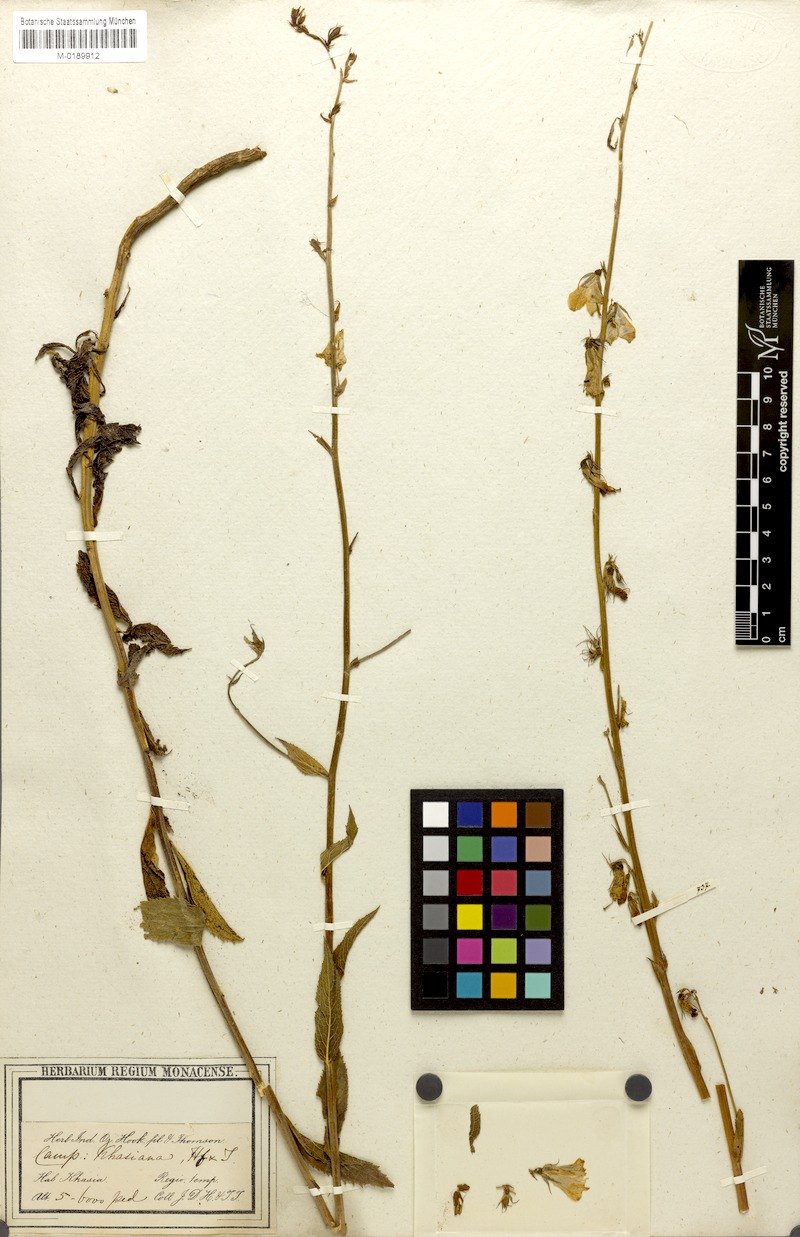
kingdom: Plantae
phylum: Tracheophyta
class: Magnoliopsida
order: Asterales
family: Campanulaceae
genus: Adenophora
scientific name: Adenophora khasiana
